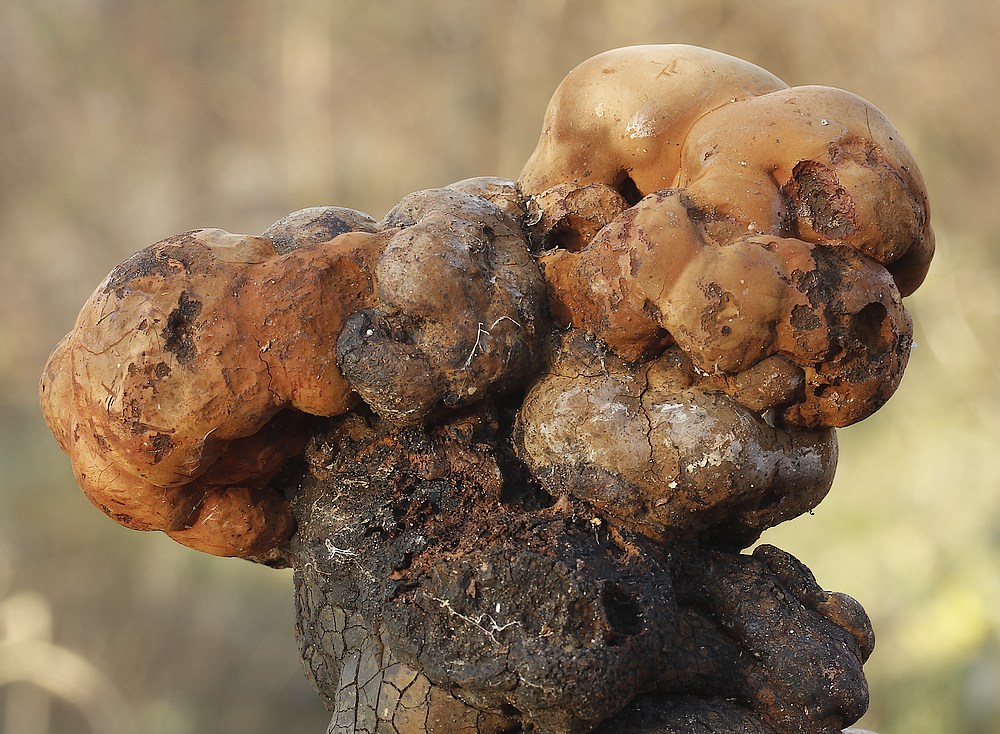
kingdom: Fungi
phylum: Basidiomycota
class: Agaricomycetes
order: Polyporales
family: Polyporaceae
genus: Fomes
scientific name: Fomes fomentarius
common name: tøndersvamp
